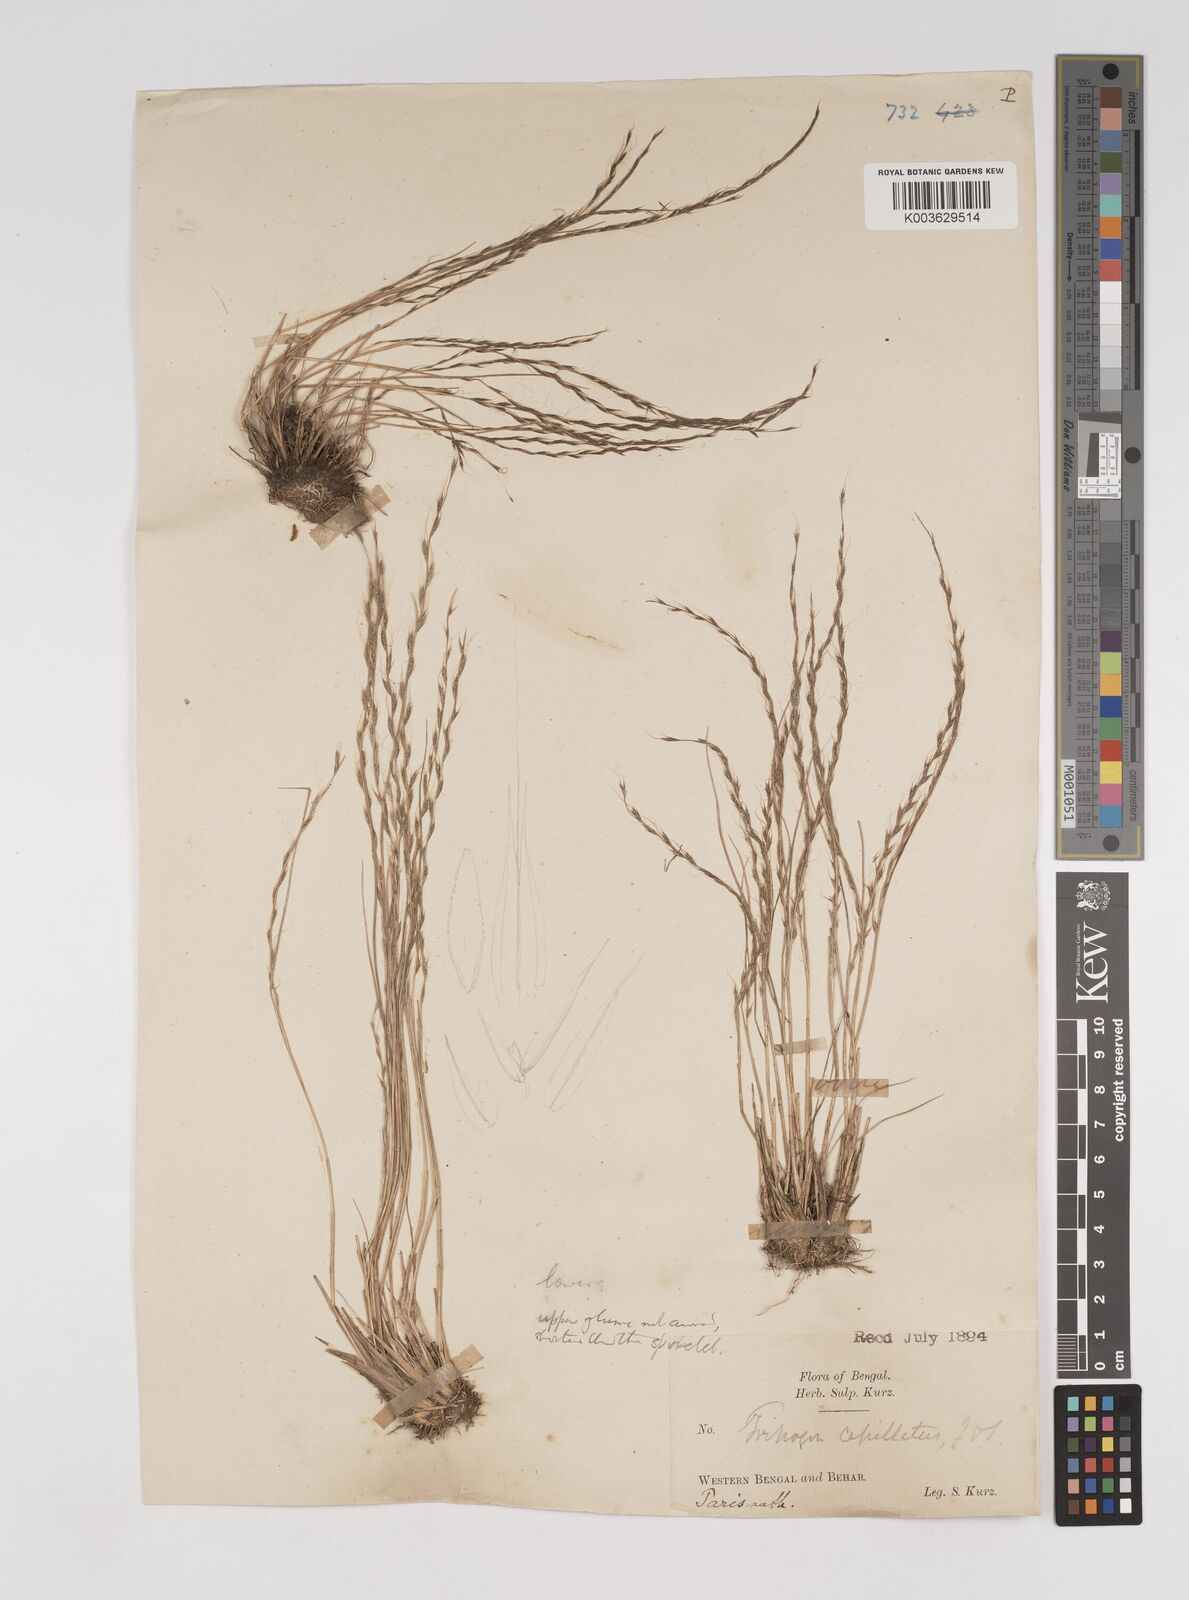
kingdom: Plantae
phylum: Tracheophyta
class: Liliopsida
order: Poales
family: Poaceae
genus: Tripogon
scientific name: Tripogon capillatus
